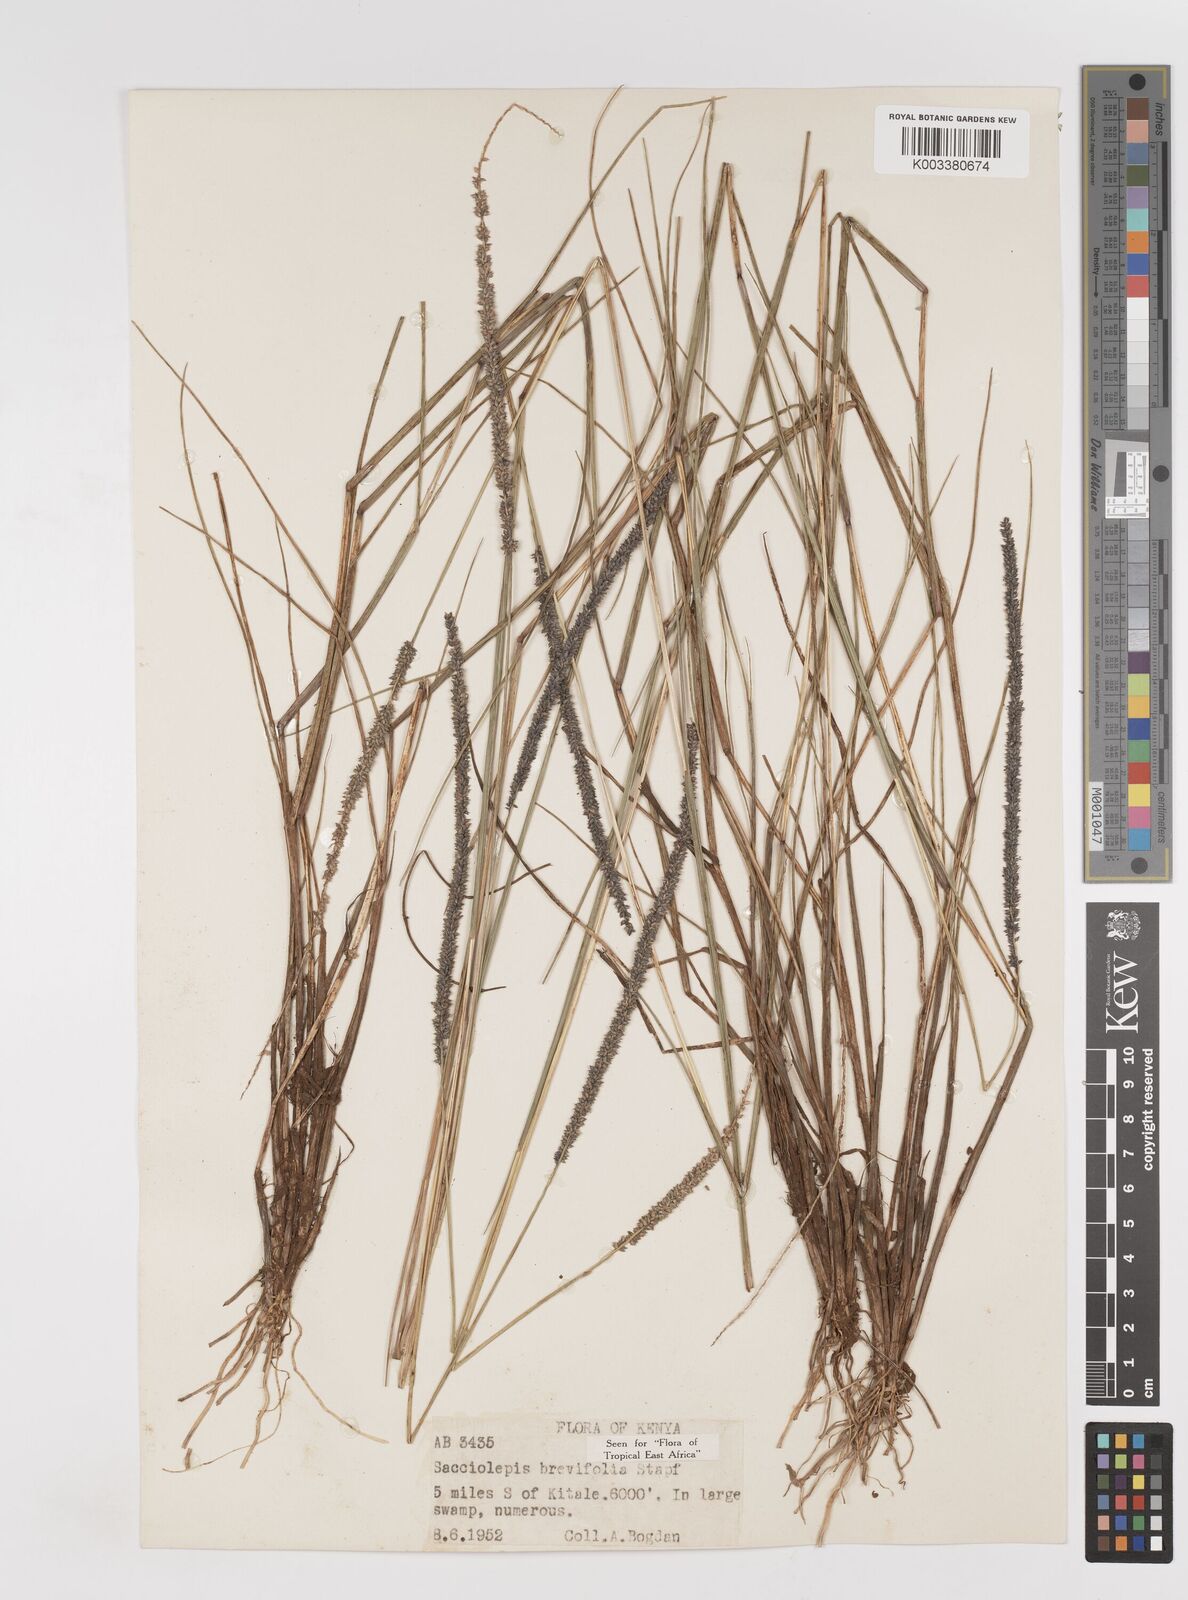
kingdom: Plantae
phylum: Tracheophyta
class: Liliopsida
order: Poales
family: Poaceae
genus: Sacciolepis
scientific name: Sacciolepis chevalieri
